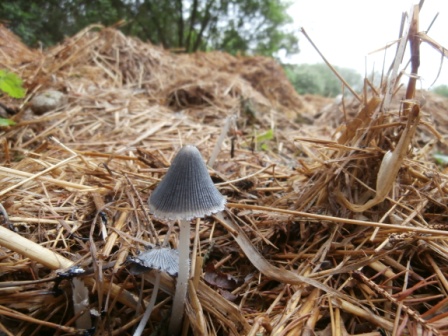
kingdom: Fungi
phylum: Basidiomycota
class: Agaricomycetes
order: Agaricales
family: Psathyrellaceae
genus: Coprinopsis
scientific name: Coprinopsis macrocephala
